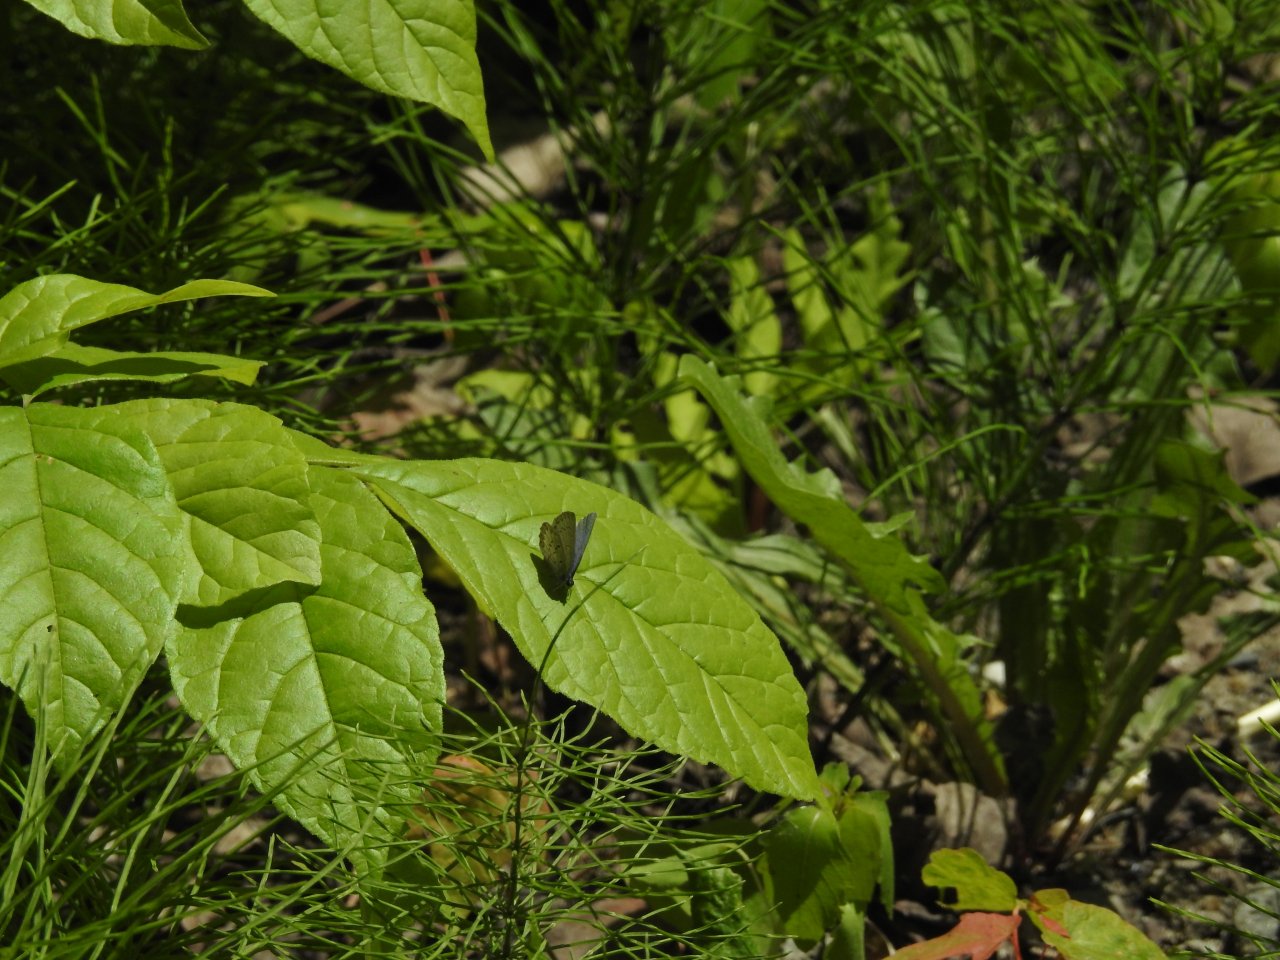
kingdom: Animalia
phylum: Arthropoda
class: Insecta
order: Lepidoptera
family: Lycaenidae
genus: Celastrina
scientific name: Celastrina lucia
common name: Northern Spring Azure
